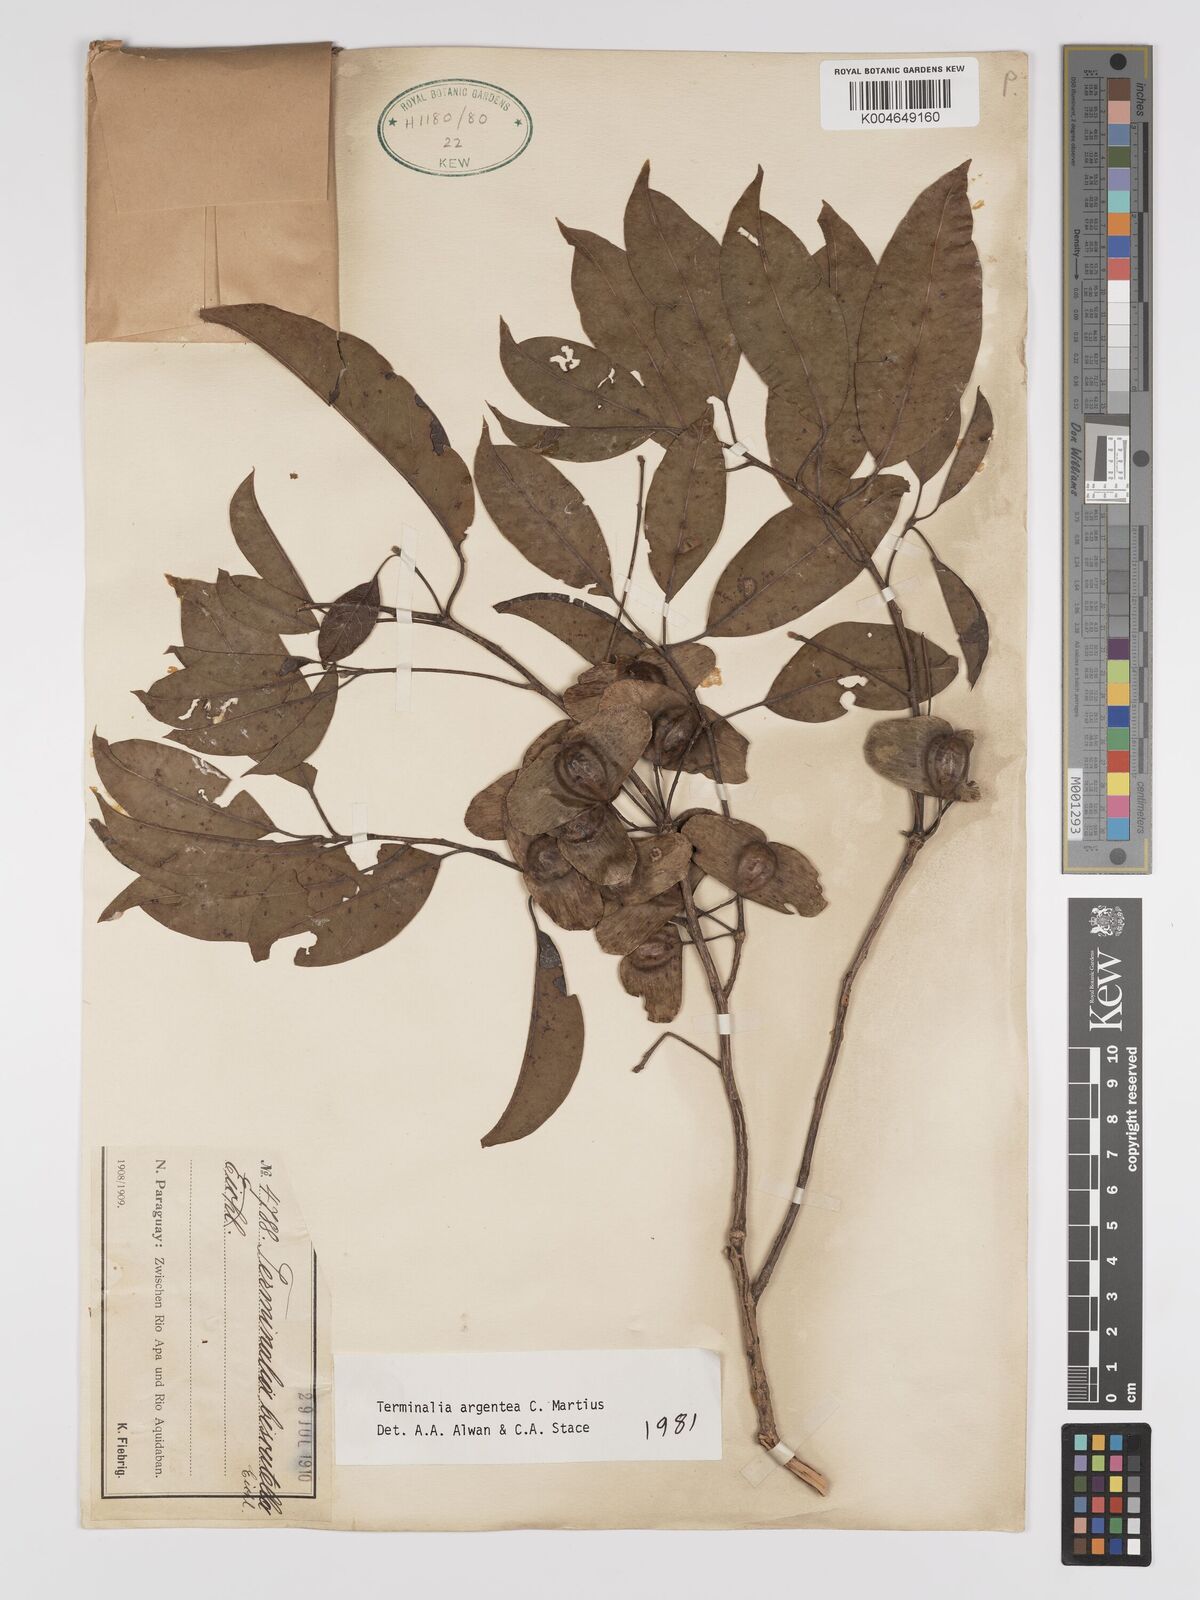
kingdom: Plantae
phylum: Tracheophyta
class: Magnoliopsida
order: Myrtales
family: Combretaceae
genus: Terminalia
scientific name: Terminalia argentea
